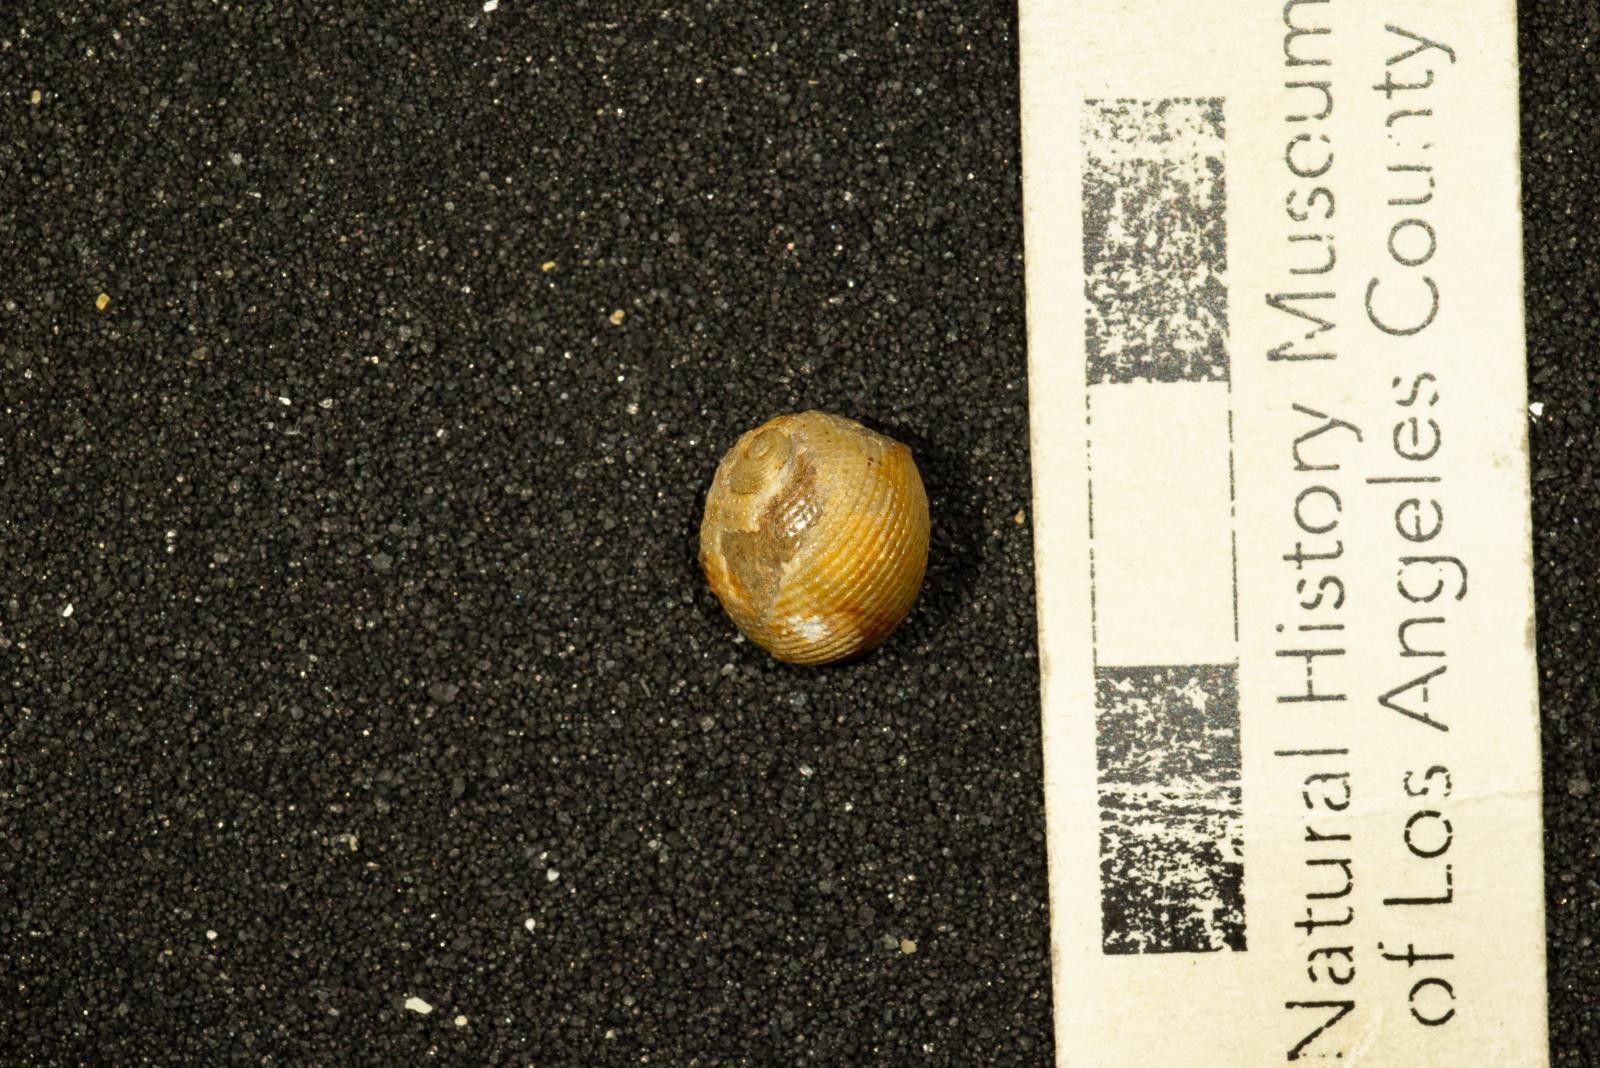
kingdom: Animalia
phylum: Mollusca
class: Gastropoda
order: Cephalaspidea
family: Ringiculidae
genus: Biplica
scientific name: Biplica miniplicata
